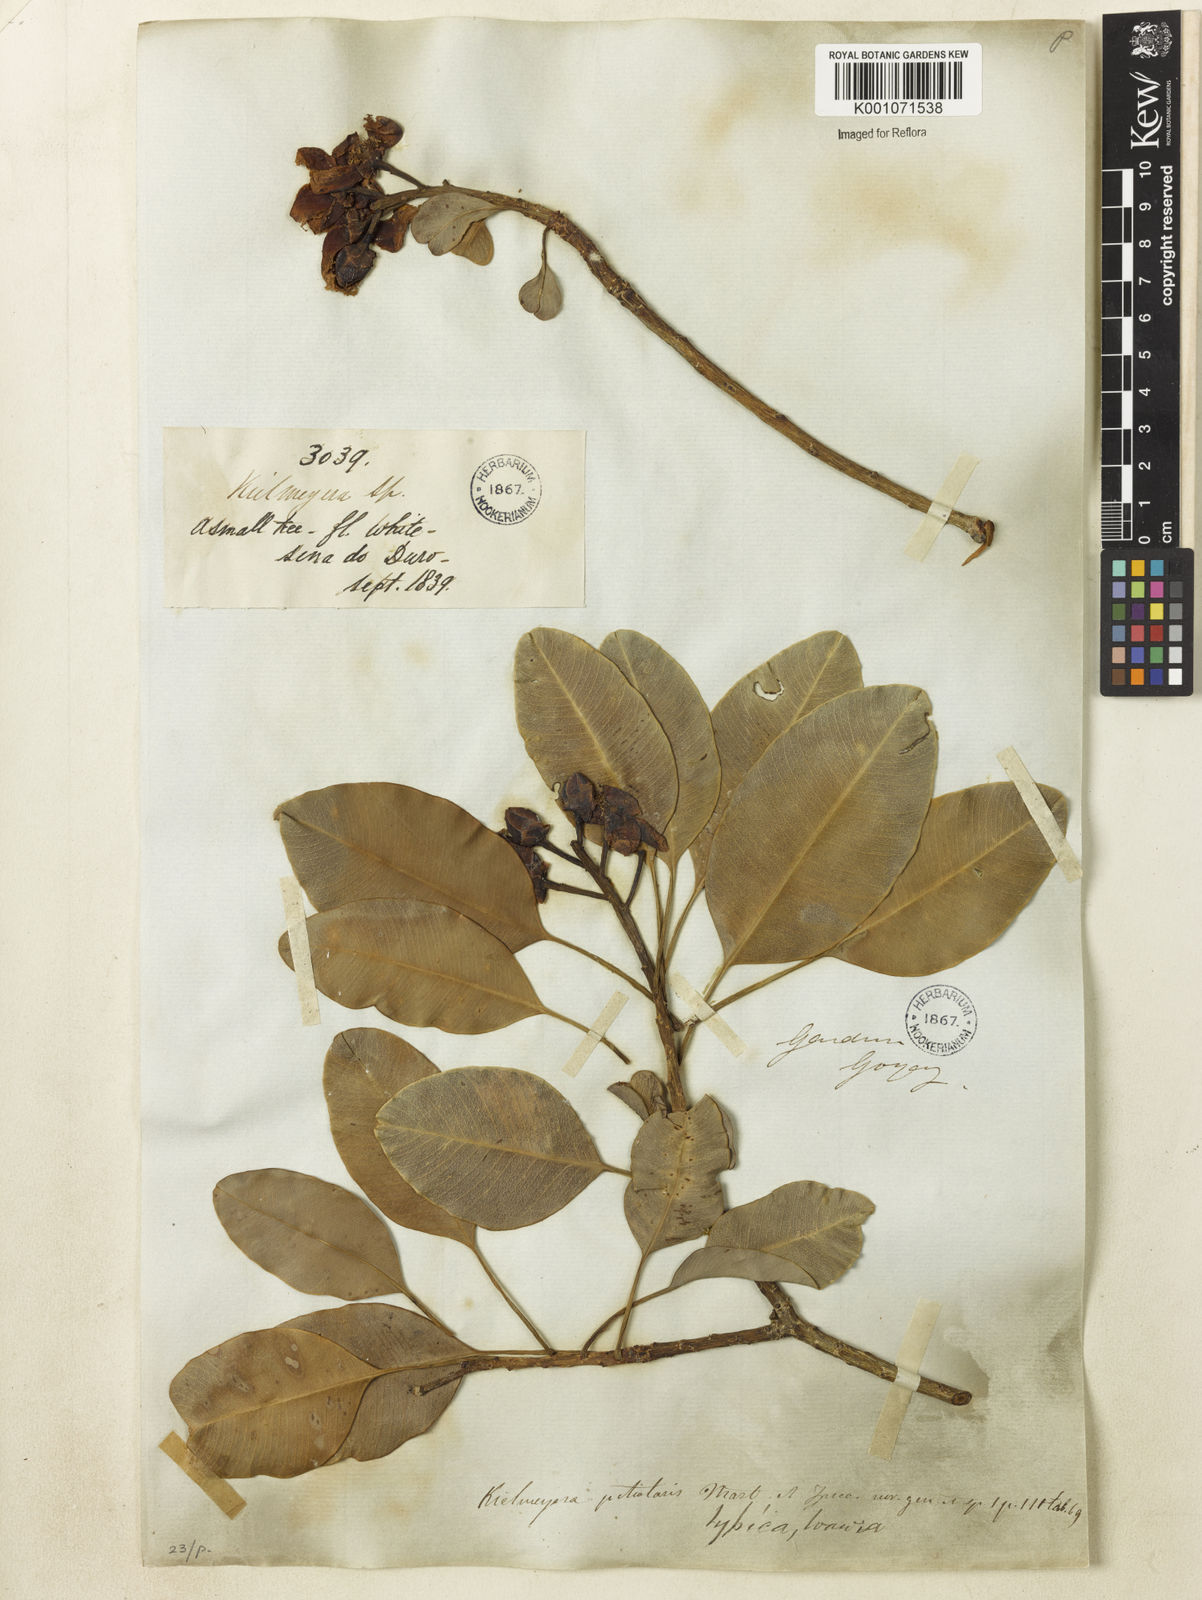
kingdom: Plantae
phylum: Tracheophyta
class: Magnoliopsida
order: Malpighiales
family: Calophyllaceae
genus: Kielmeyera
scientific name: Kielmeyera petiolaris
